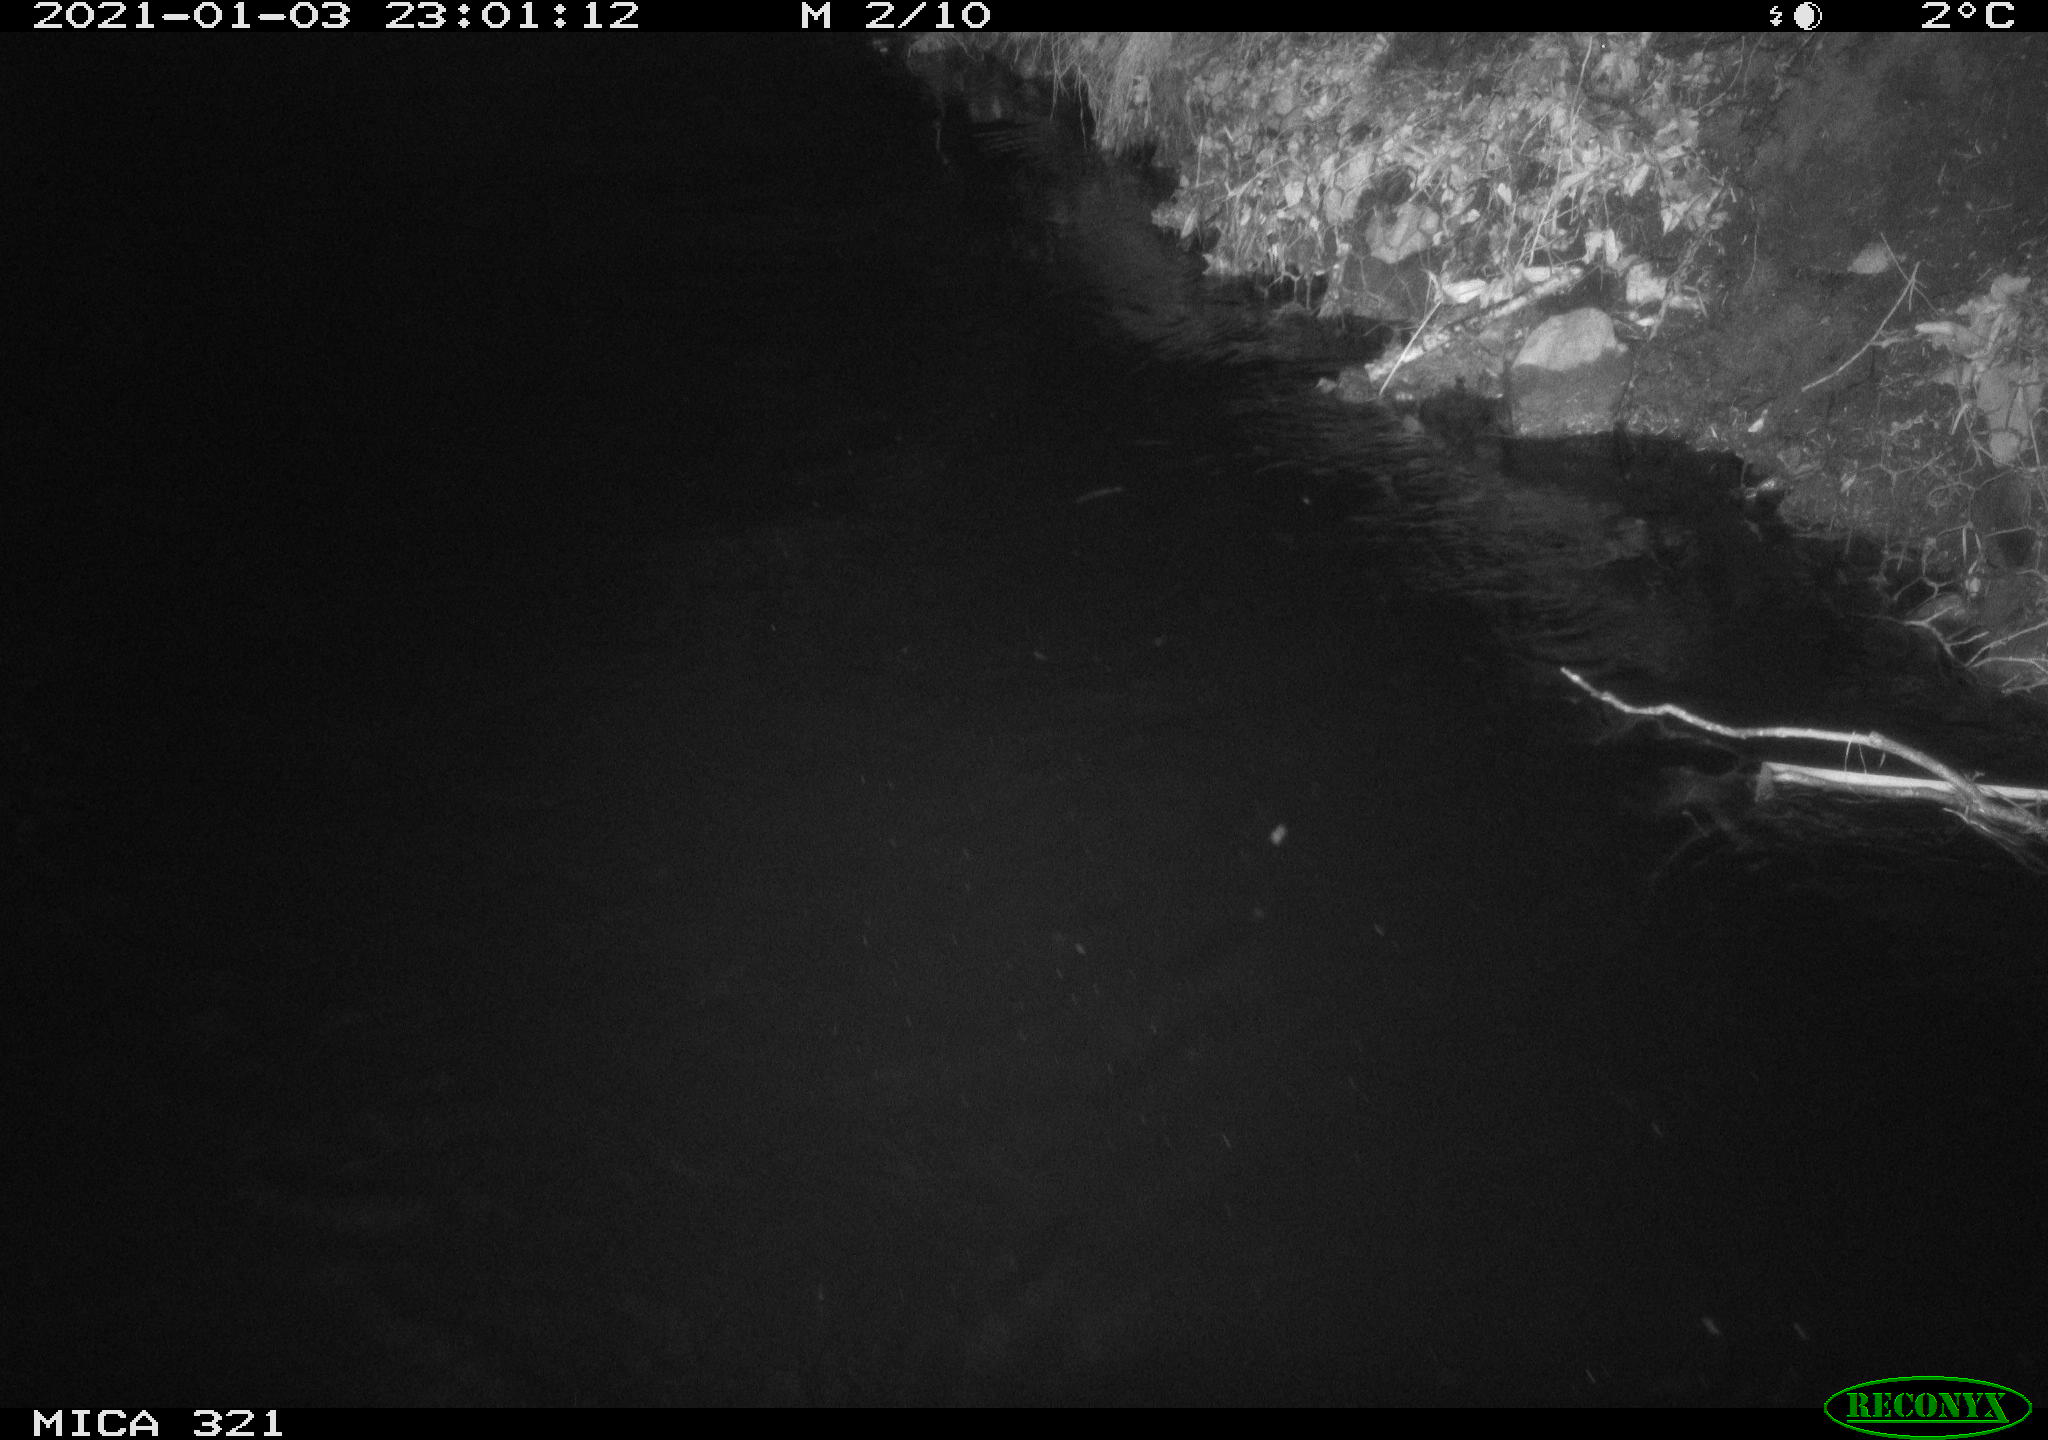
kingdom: Animalia
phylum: Chordata
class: Aves
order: Anseriformes
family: Anatidae
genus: Anas
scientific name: Anas platyrhynchos
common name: Mallard
